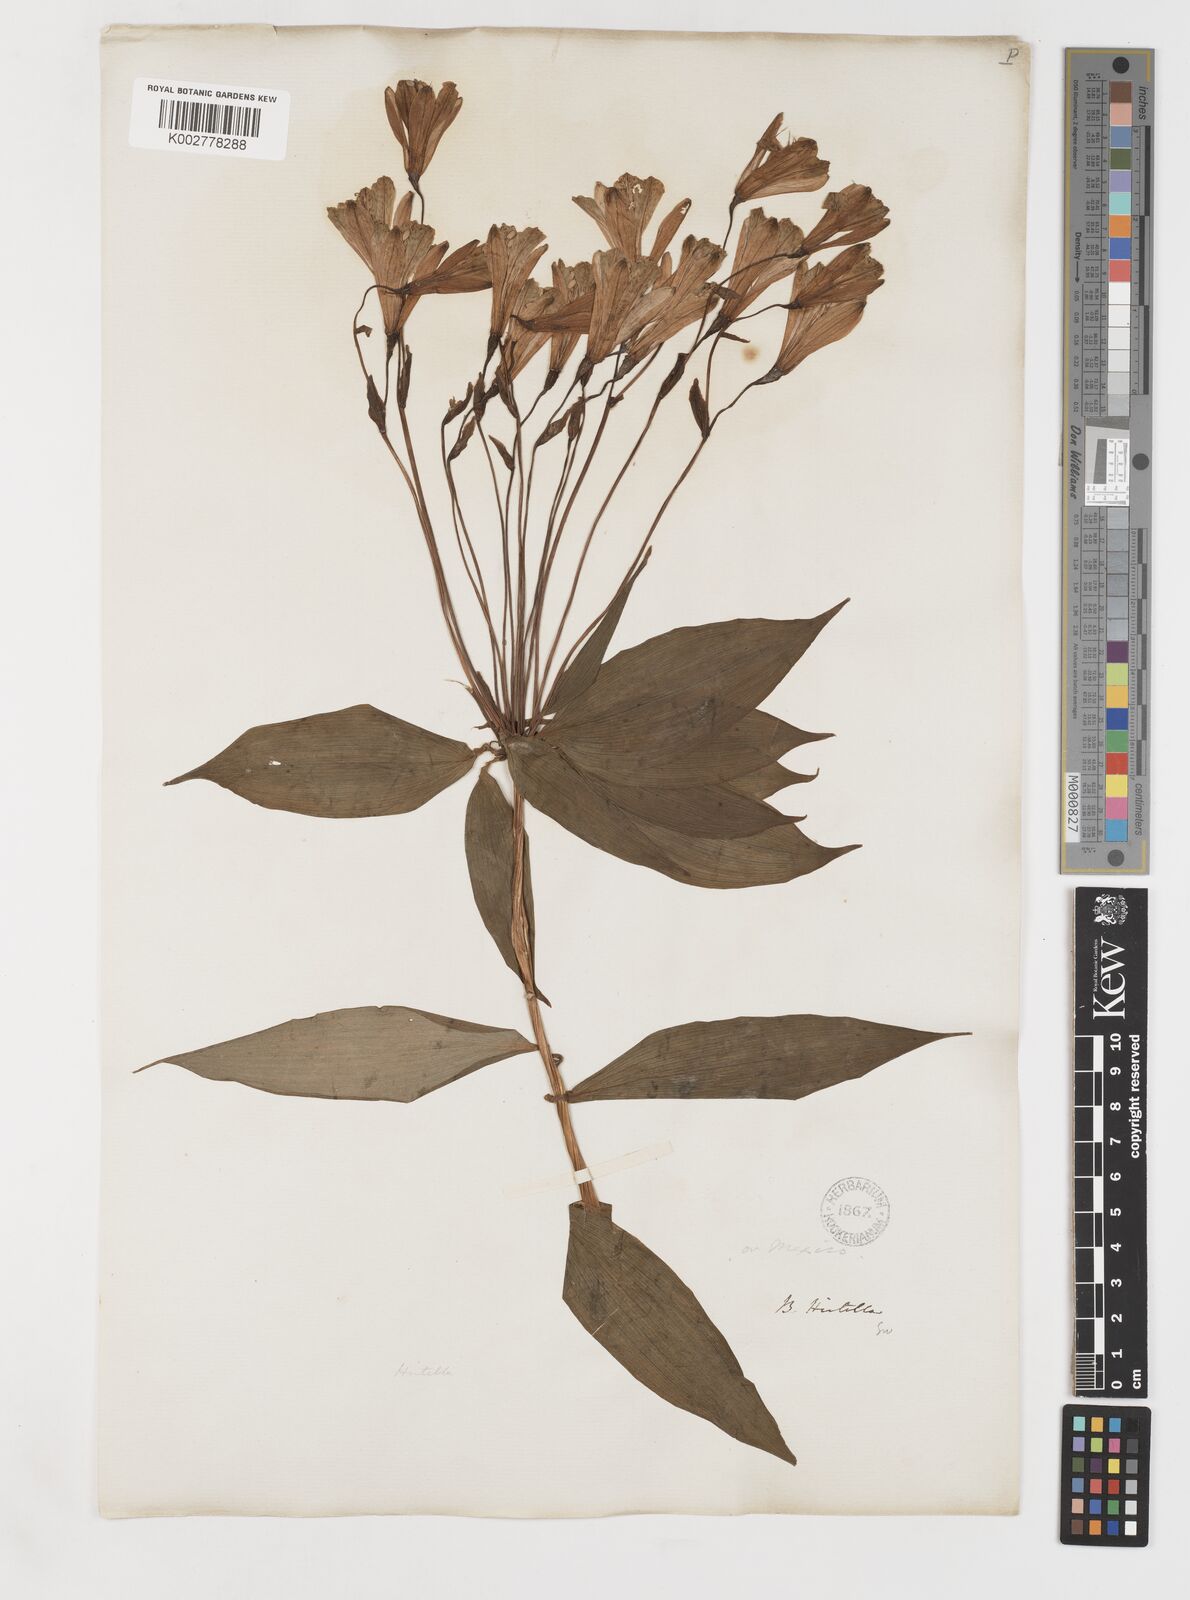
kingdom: Plantae
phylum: Tracheophyta
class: Liliopsida
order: Liliales
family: Alstroemeriaceae
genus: Bomarea
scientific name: Bomarea edulis
